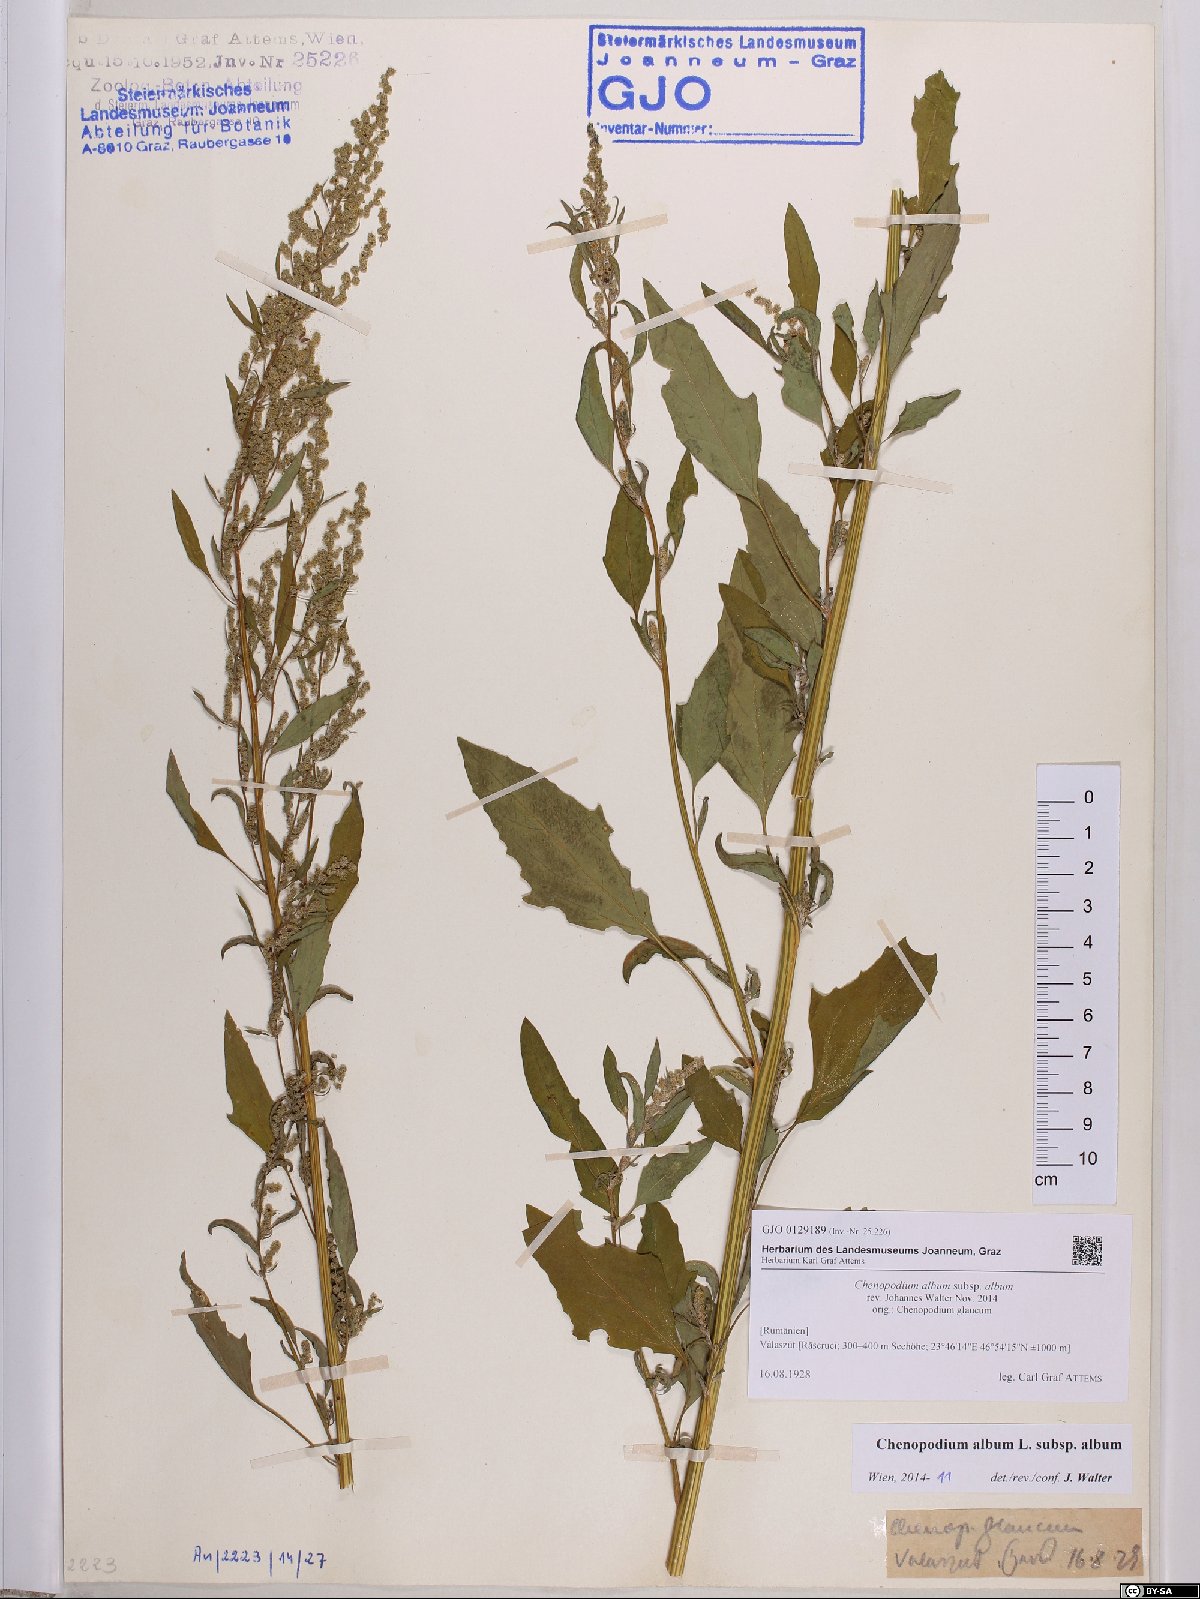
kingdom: Plantae
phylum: Tracheophyta
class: Magnoliopsida
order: Caryophyllales
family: Amaranthaceae
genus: Chenopodium
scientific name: Chenopodium album
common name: Fat-hen
